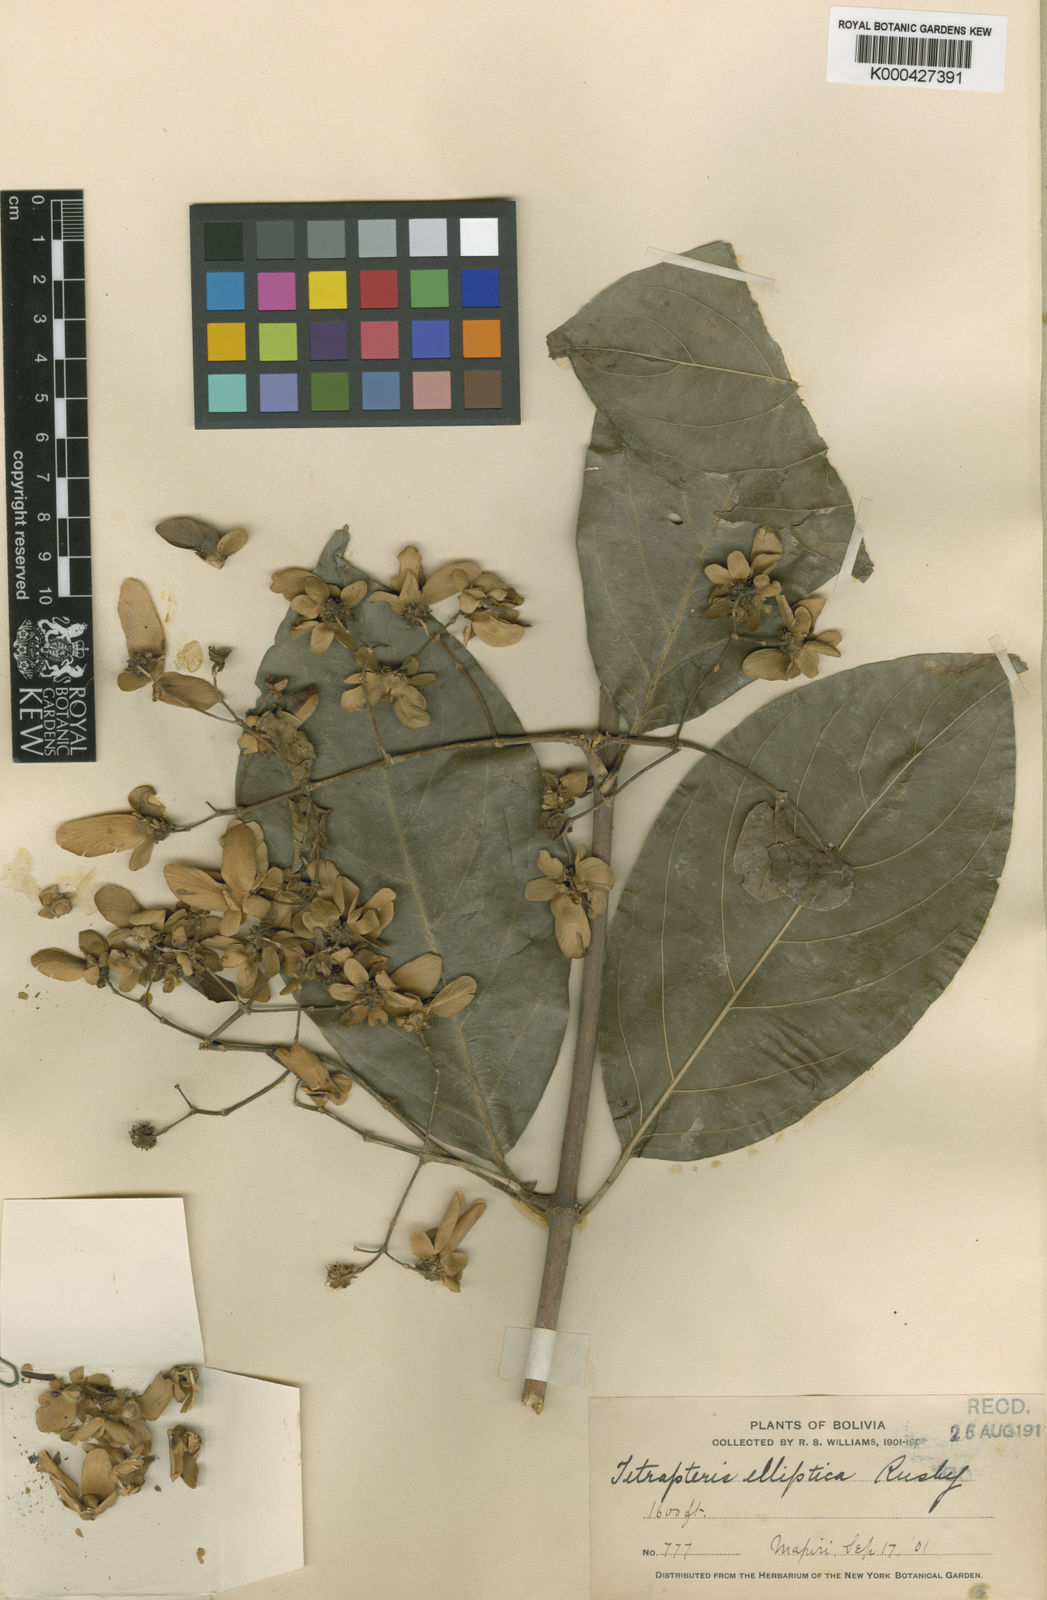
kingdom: Plantae
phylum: Tracheophyta
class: Magnoliopsida
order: Malpighiales
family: Malpighiaceae
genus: Tetrapterys
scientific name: Tetrapterys crispa
